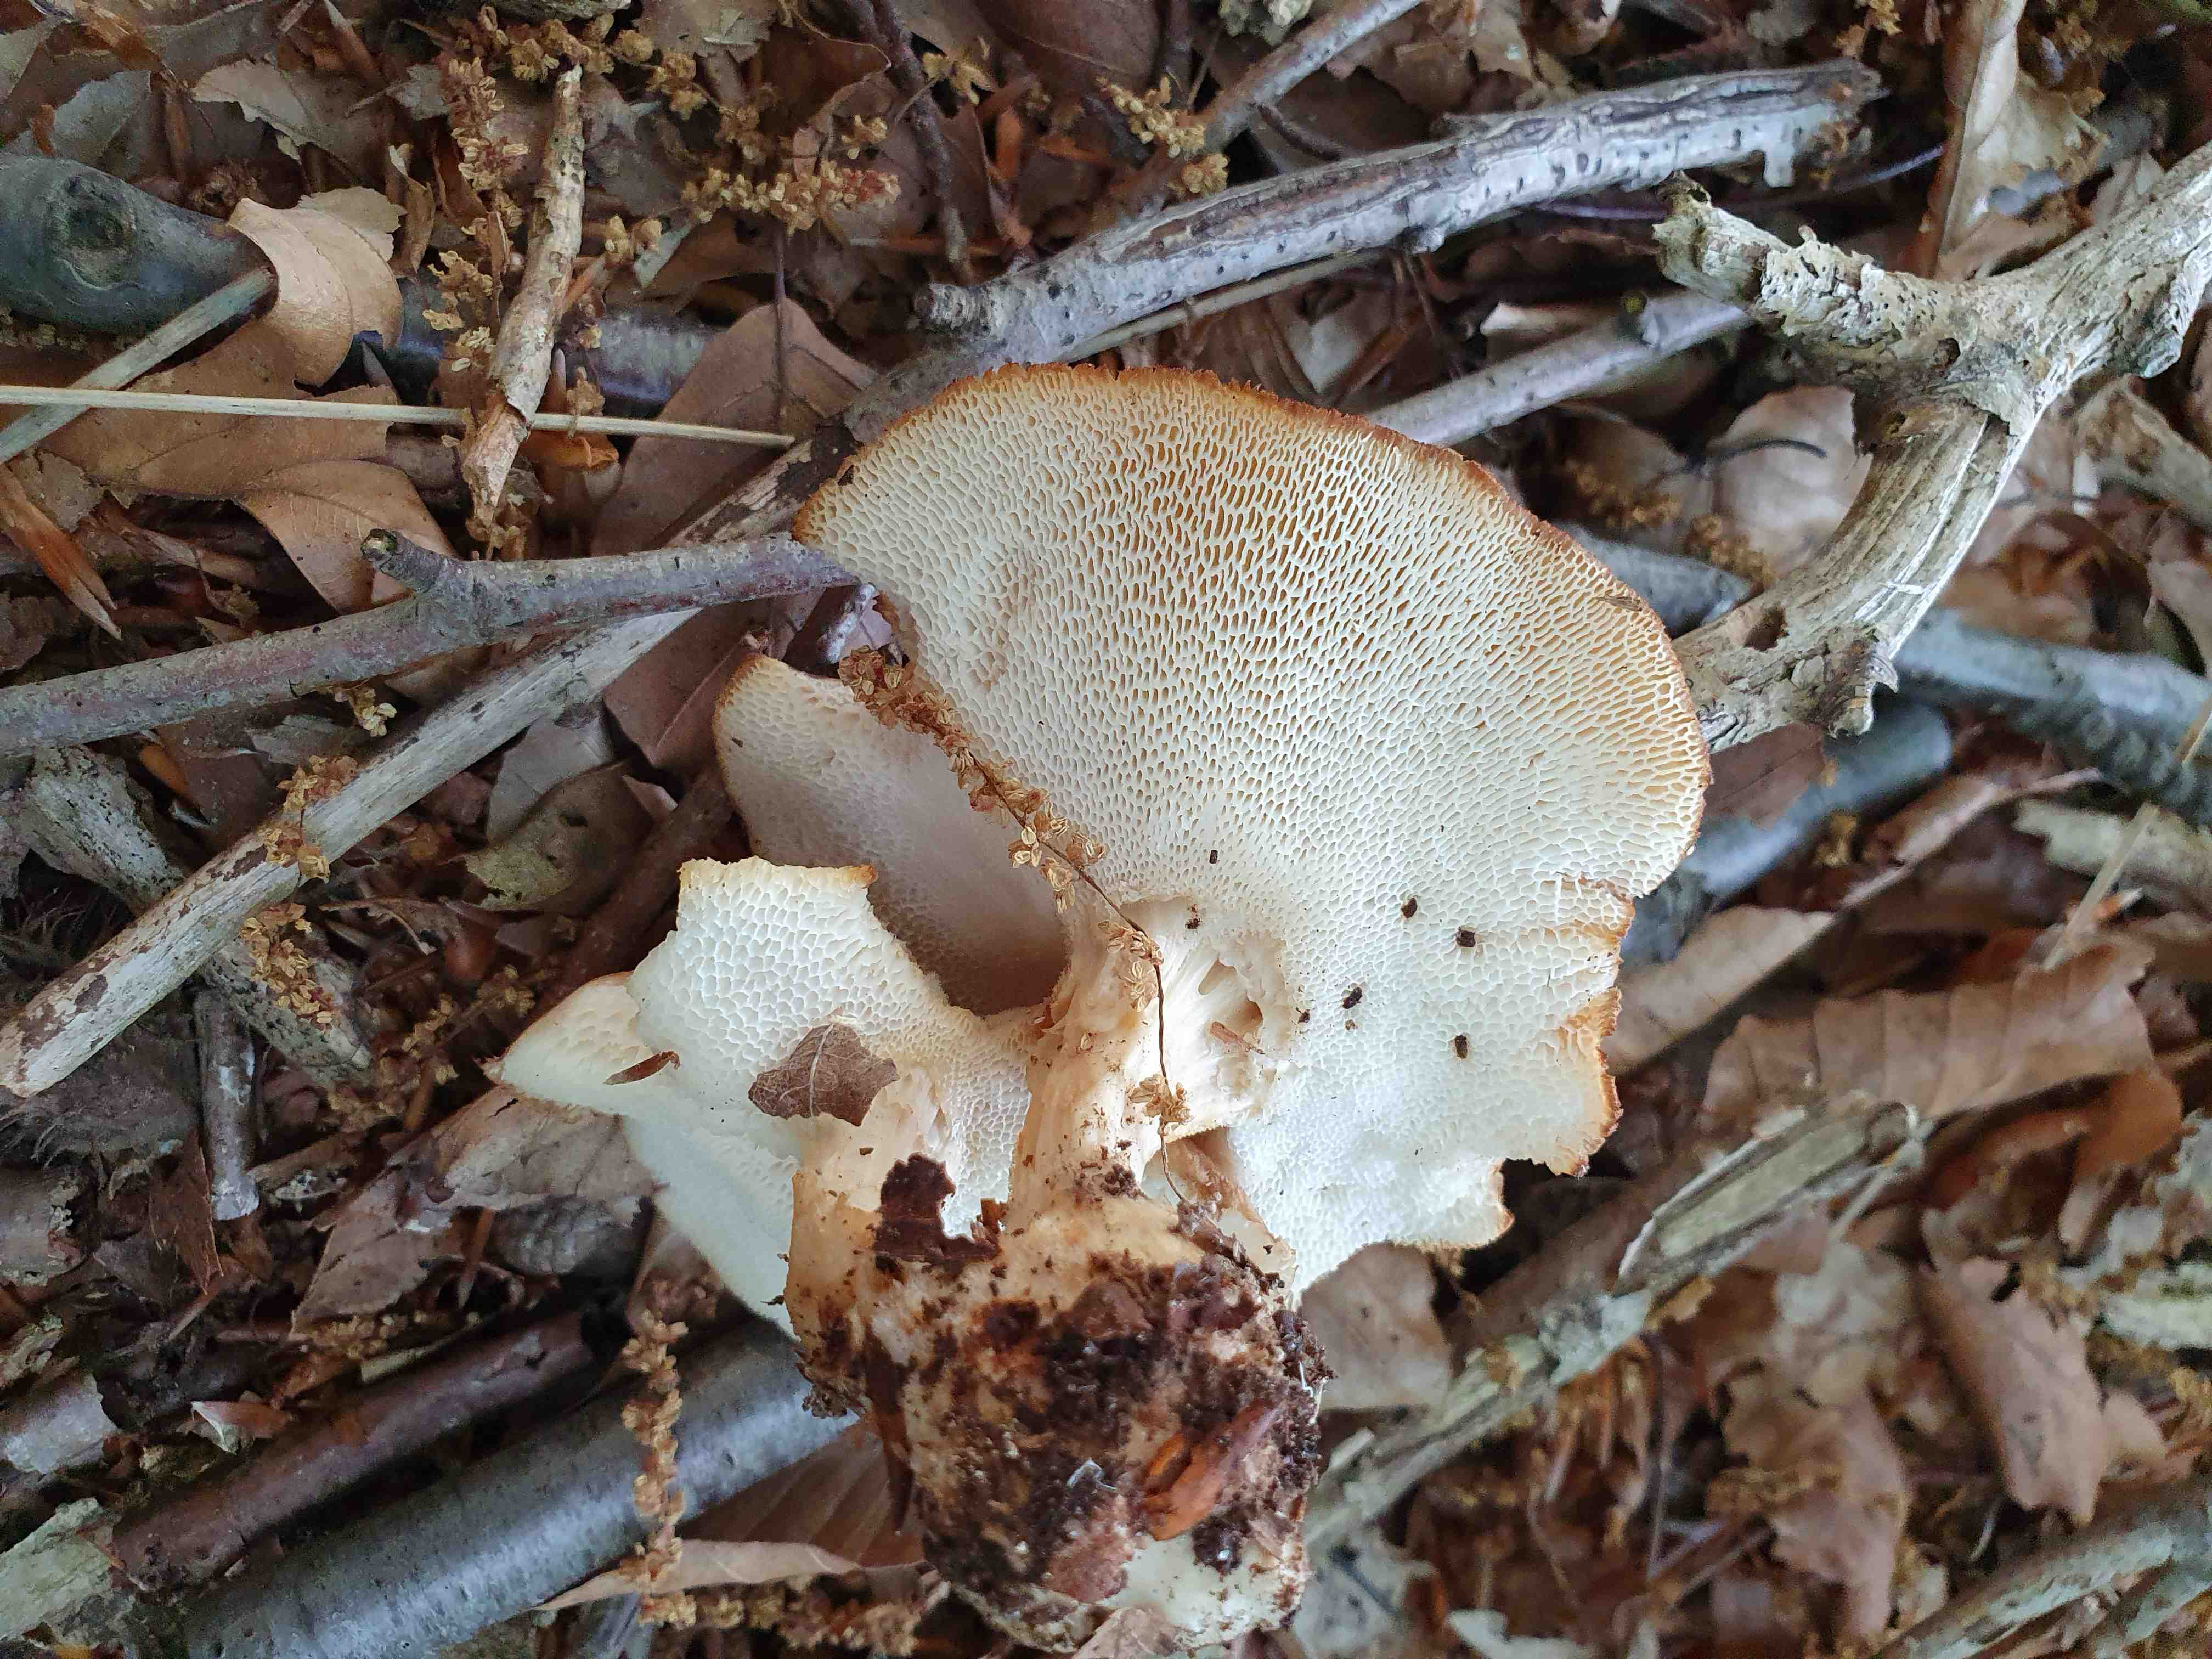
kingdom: Fungi
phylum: Basidiomycota
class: Agaricomycetes
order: Polyporales
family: Polyporaceae
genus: Polyporus
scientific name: Polyporus tuberaster
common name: knoldet stilkporesvamp
